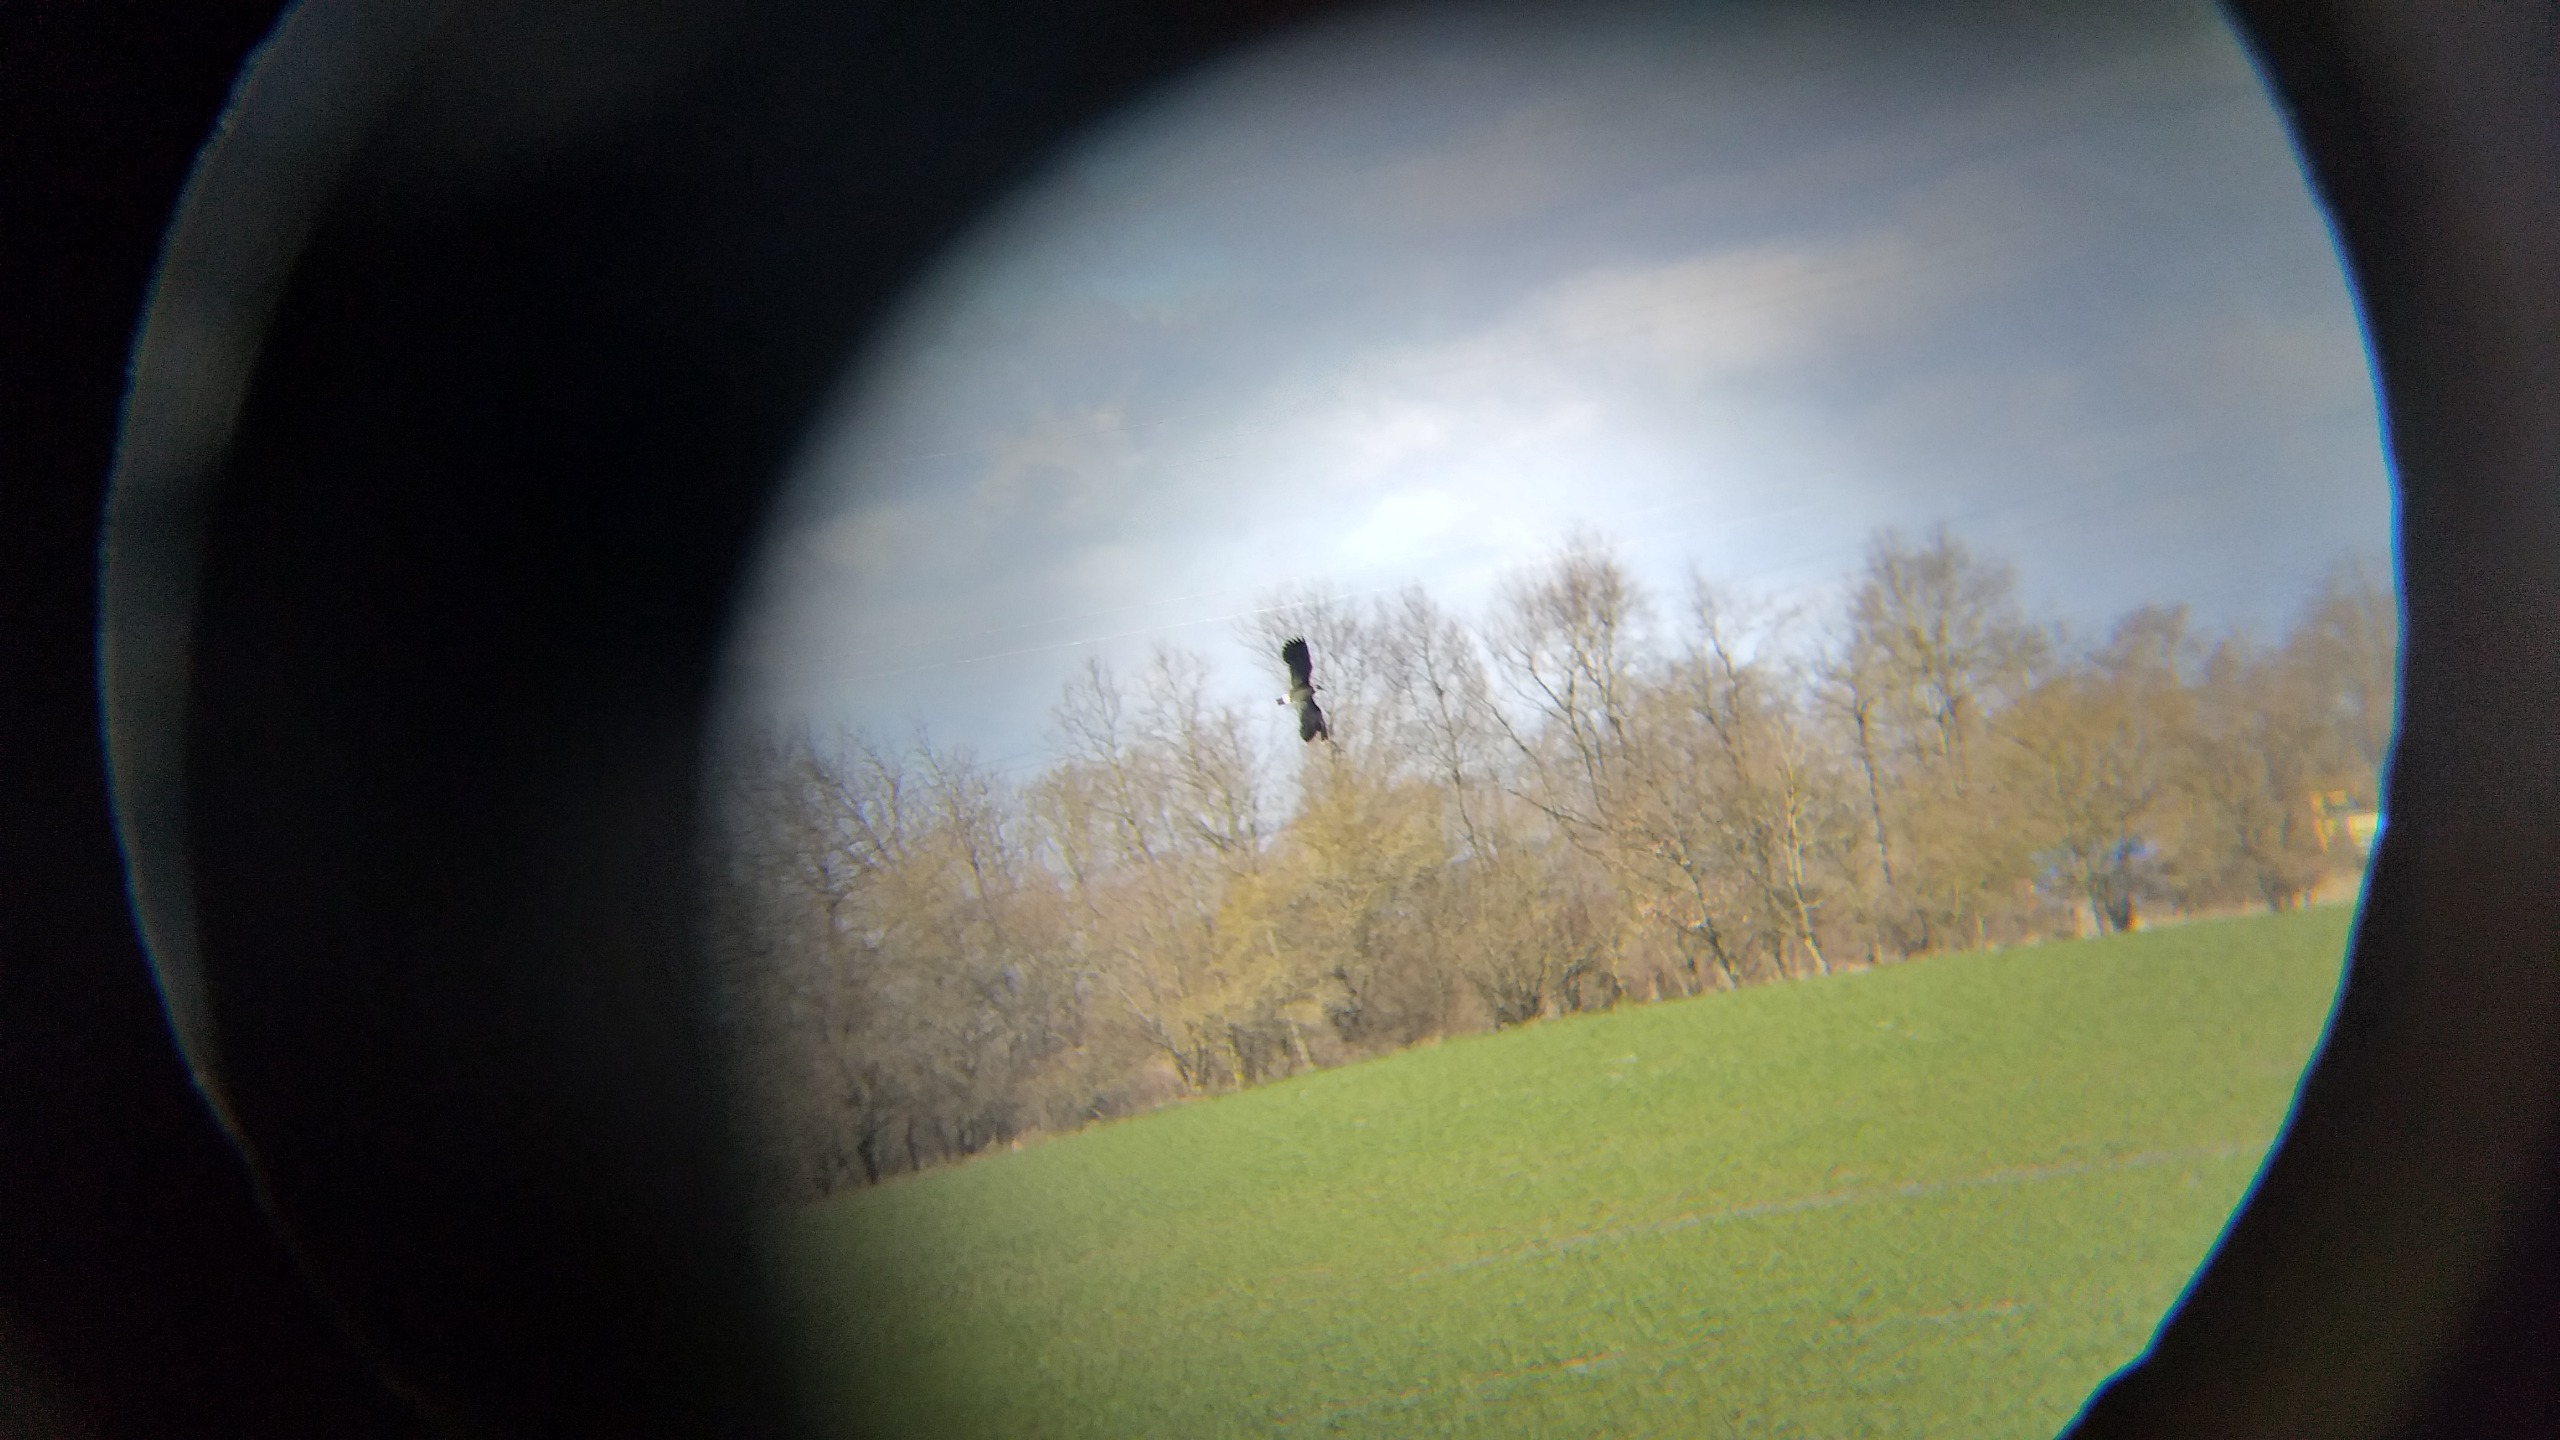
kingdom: Animalia
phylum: Chordata
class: Aves
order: Charadriiformes
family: Charadriidae
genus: Vanellus
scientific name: Vanellus vanellus
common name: Vibe
